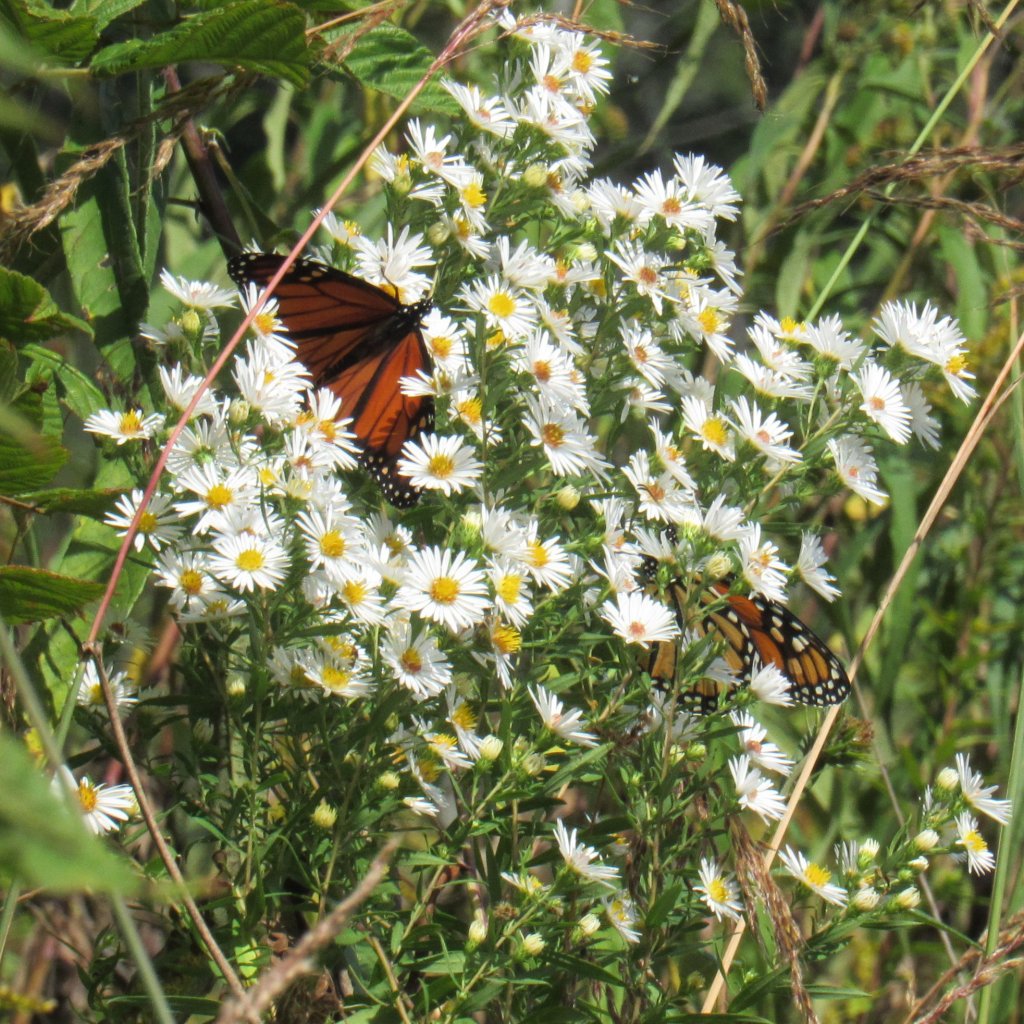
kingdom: Animalia
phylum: Arthropoda
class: Insecta
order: Lepidoptera
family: Nymphalidae
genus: Danaus
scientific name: Danaus plexippus
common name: Monarch
